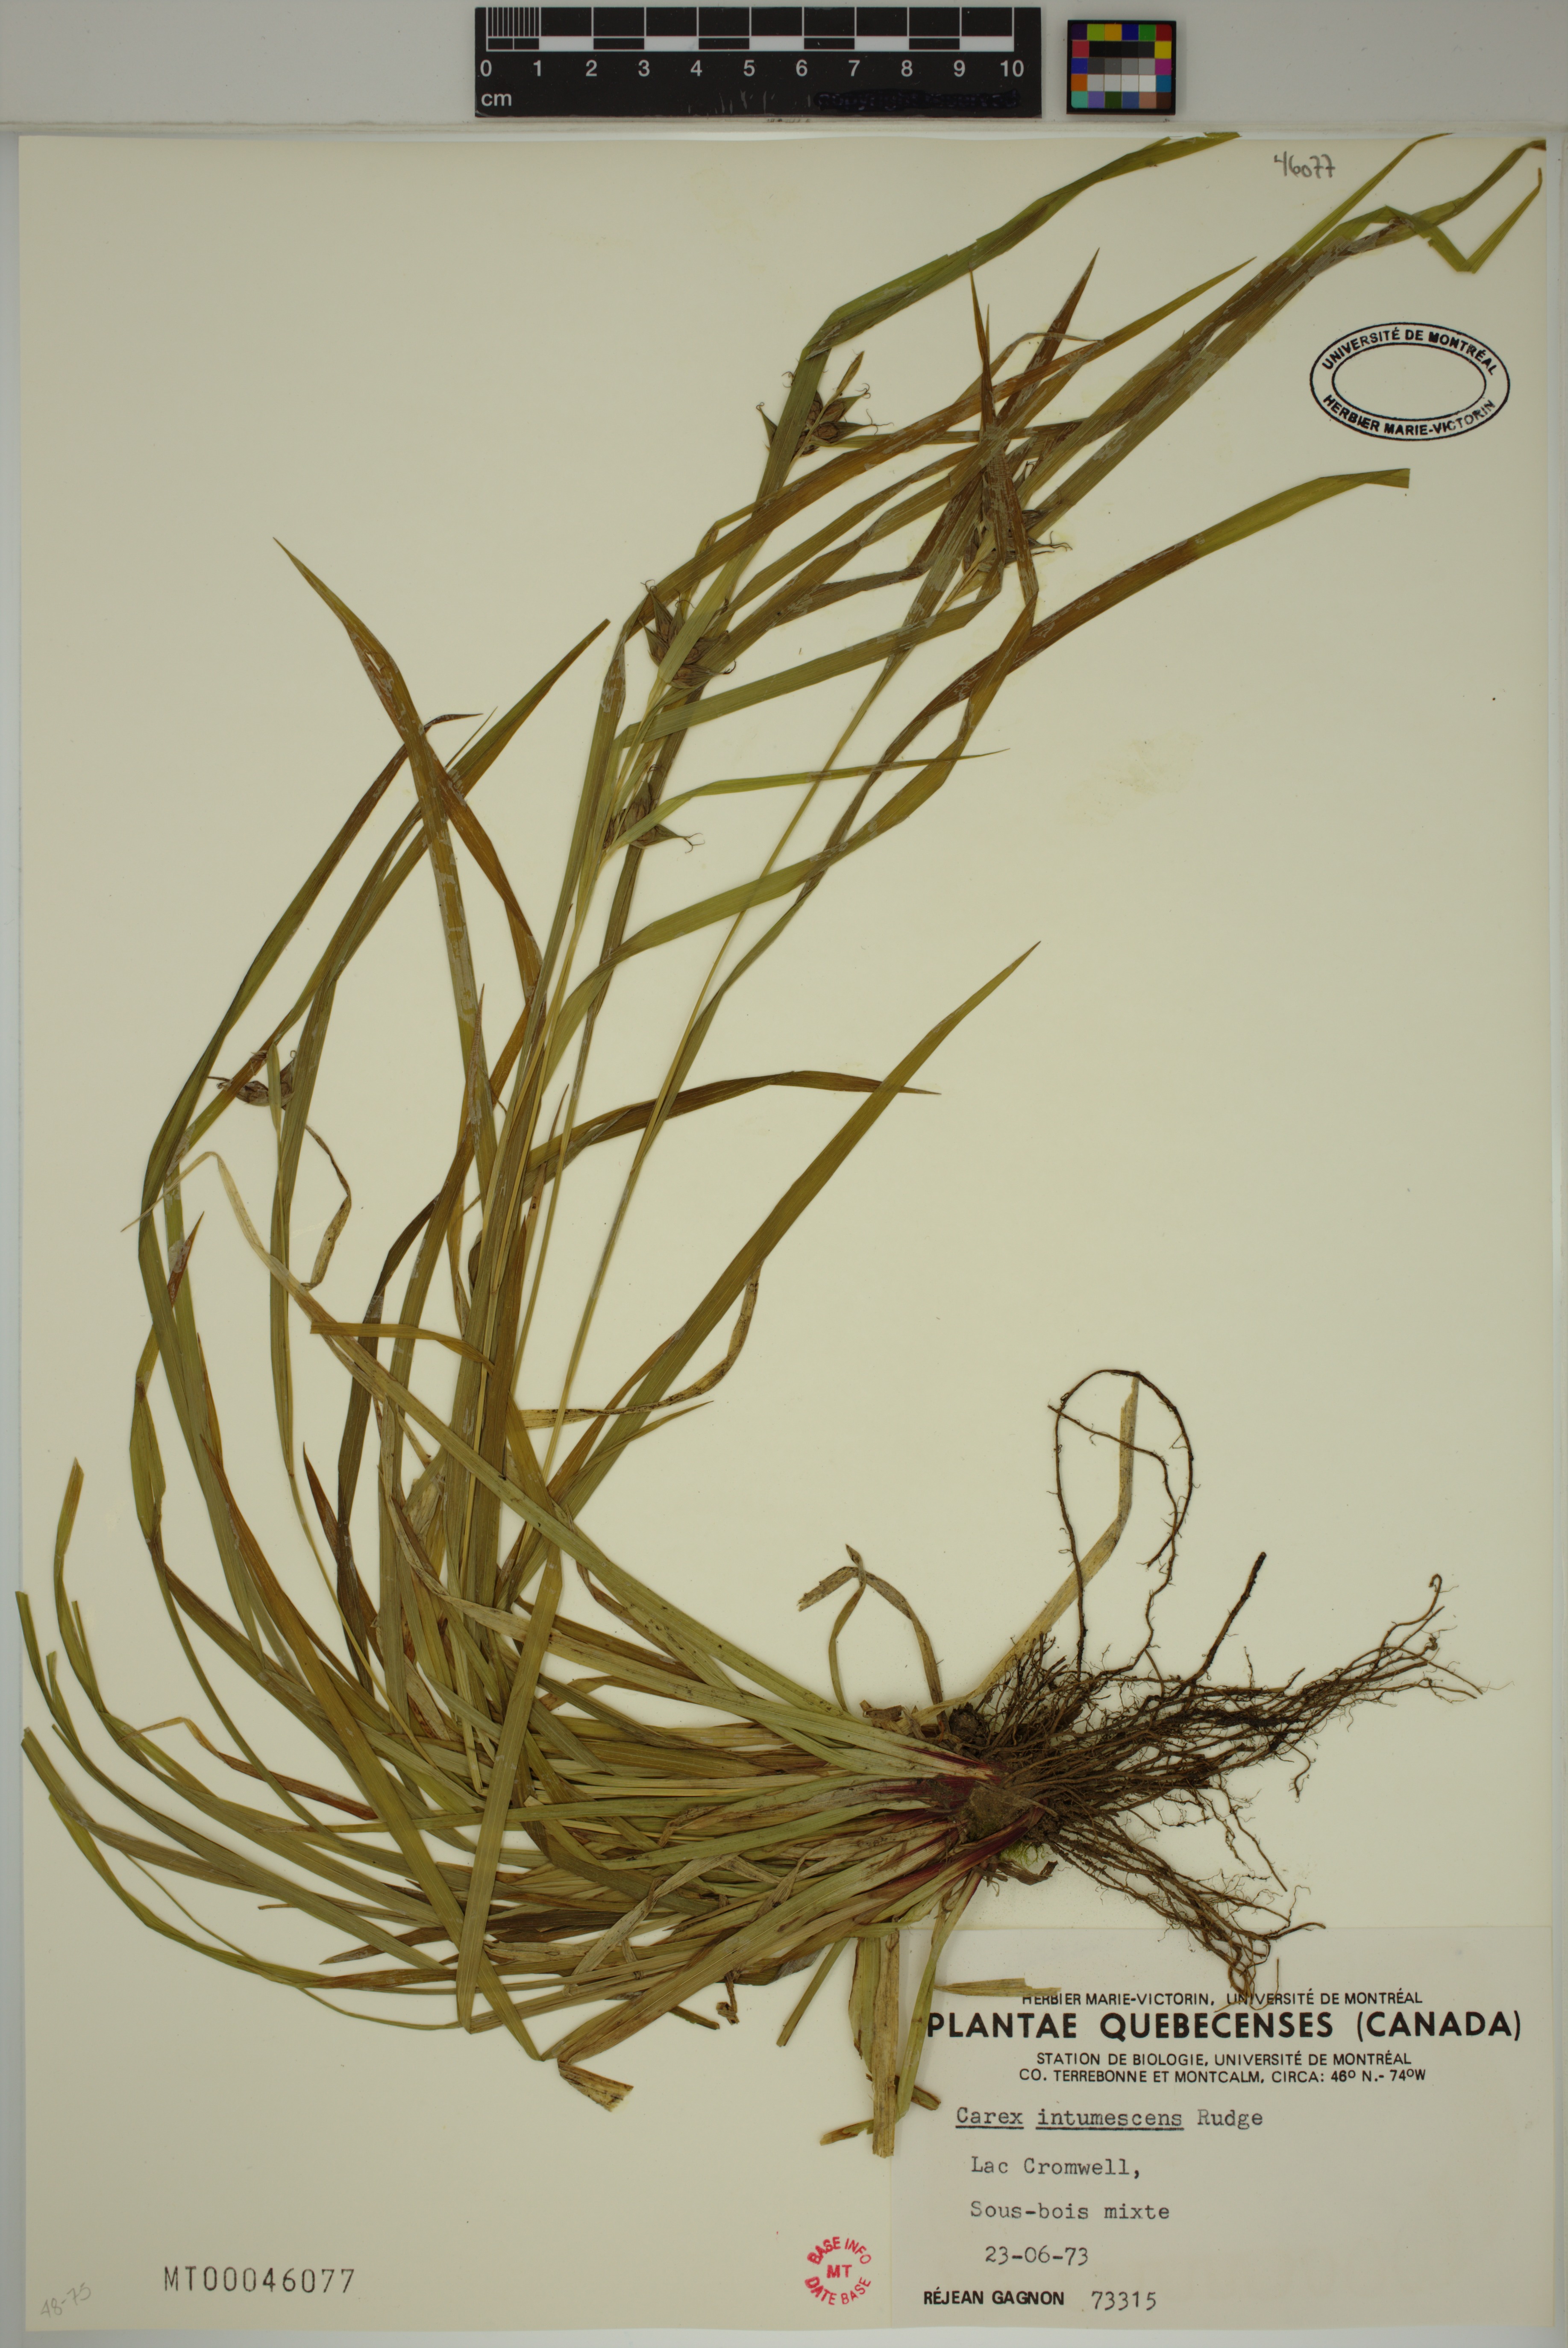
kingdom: Plantae
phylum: Tracheophyta
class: Liliopsida
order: Poales
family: Cyperaceae
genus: Carex
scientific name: Carex intumescens
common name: Greater bladder sedge
